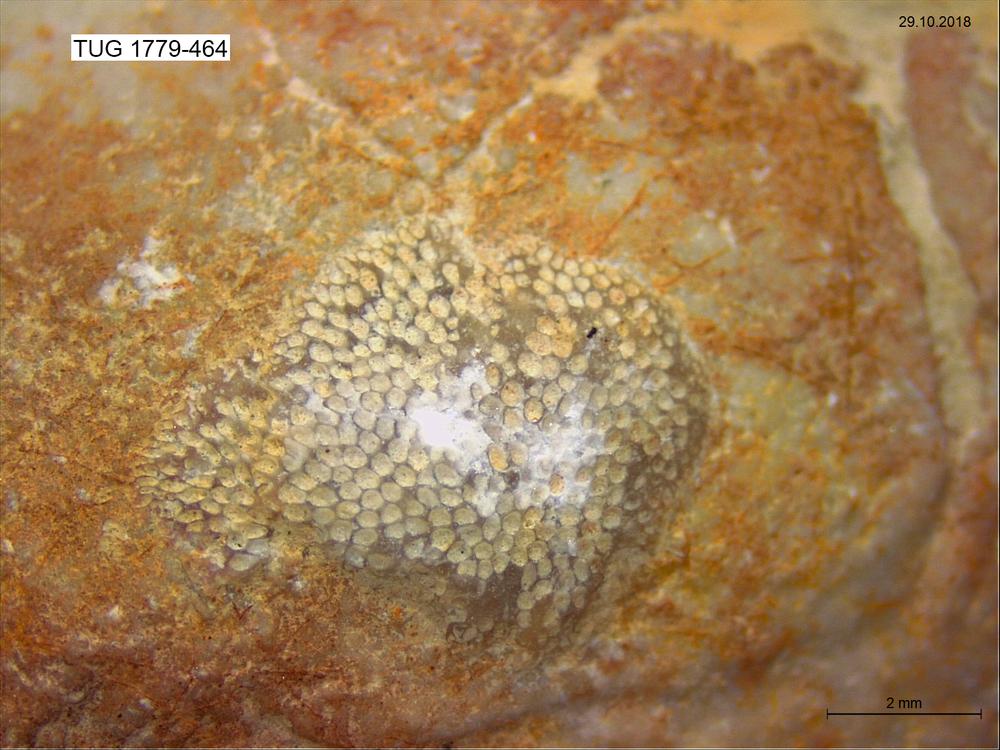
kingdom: Animalia
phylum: Bryozoa
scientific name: Bryozoa
